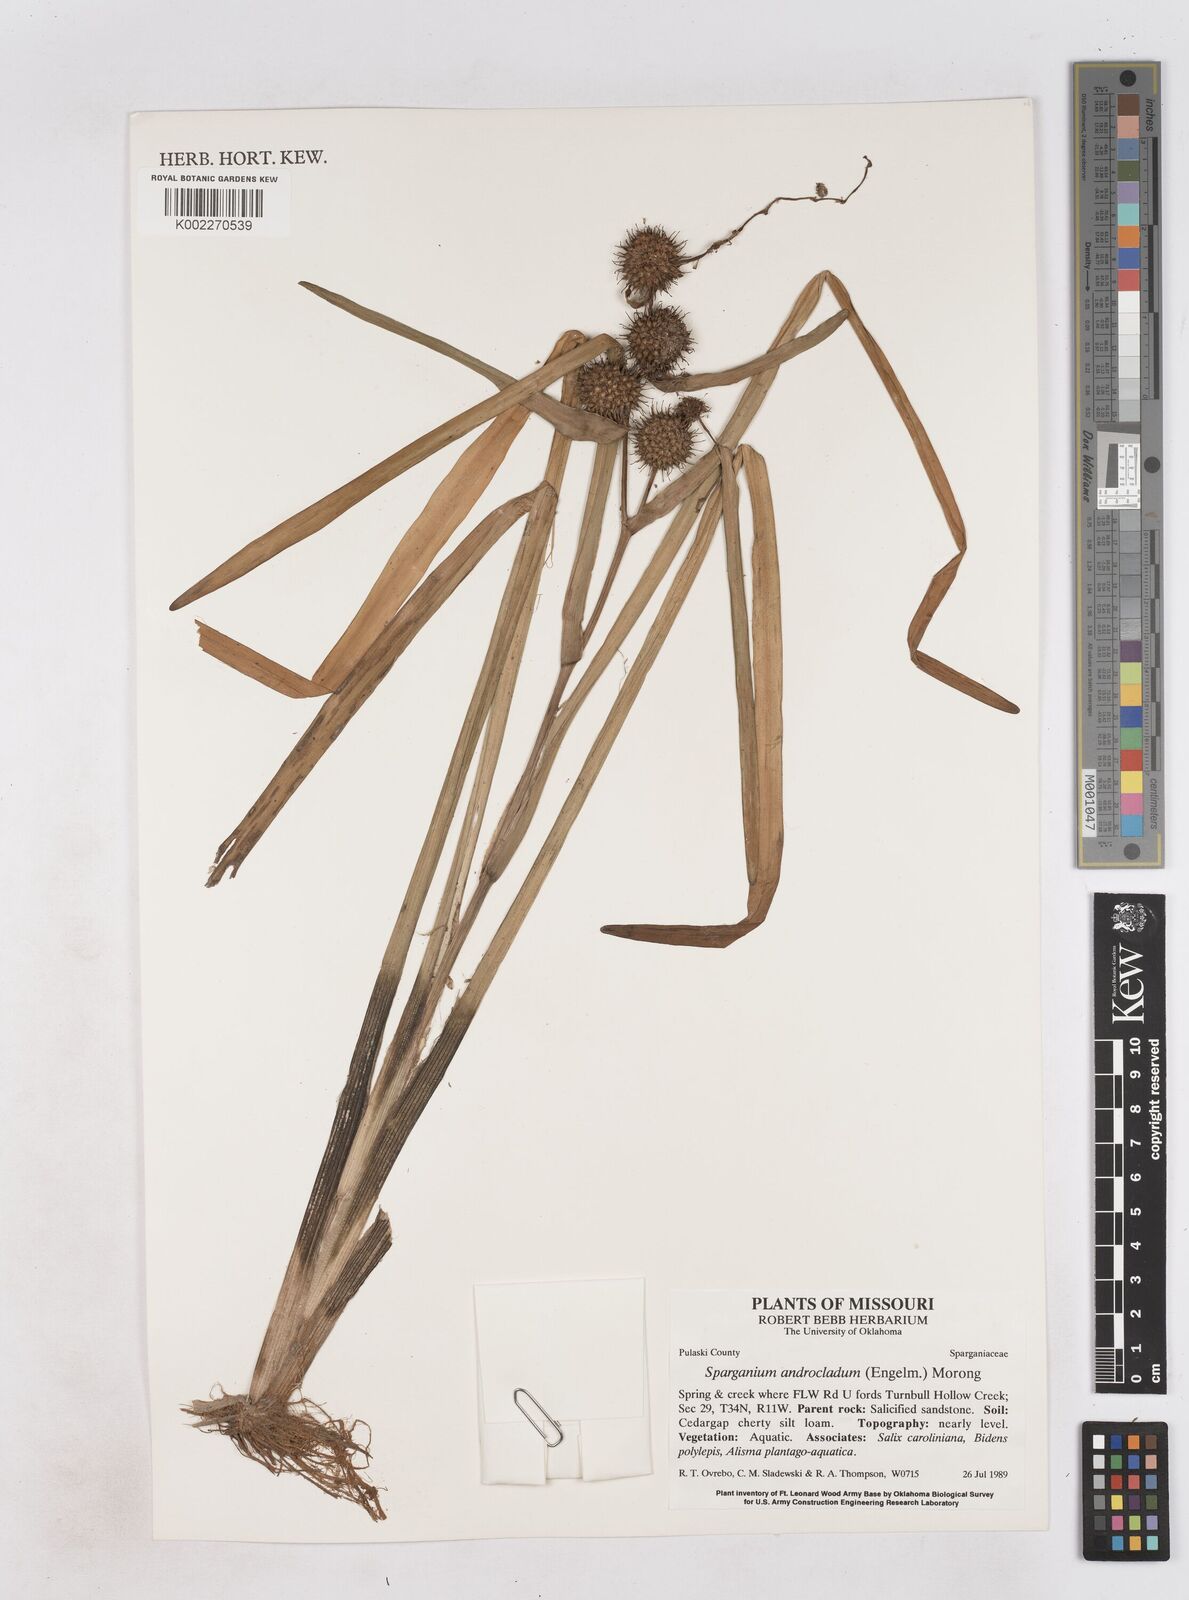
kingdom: Plantae
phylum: Tracheophyta
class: Liliopsida
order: Poales
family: Typhaceae
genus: Sparganium
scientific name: Sparganium androcladum
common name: Branched burreed
